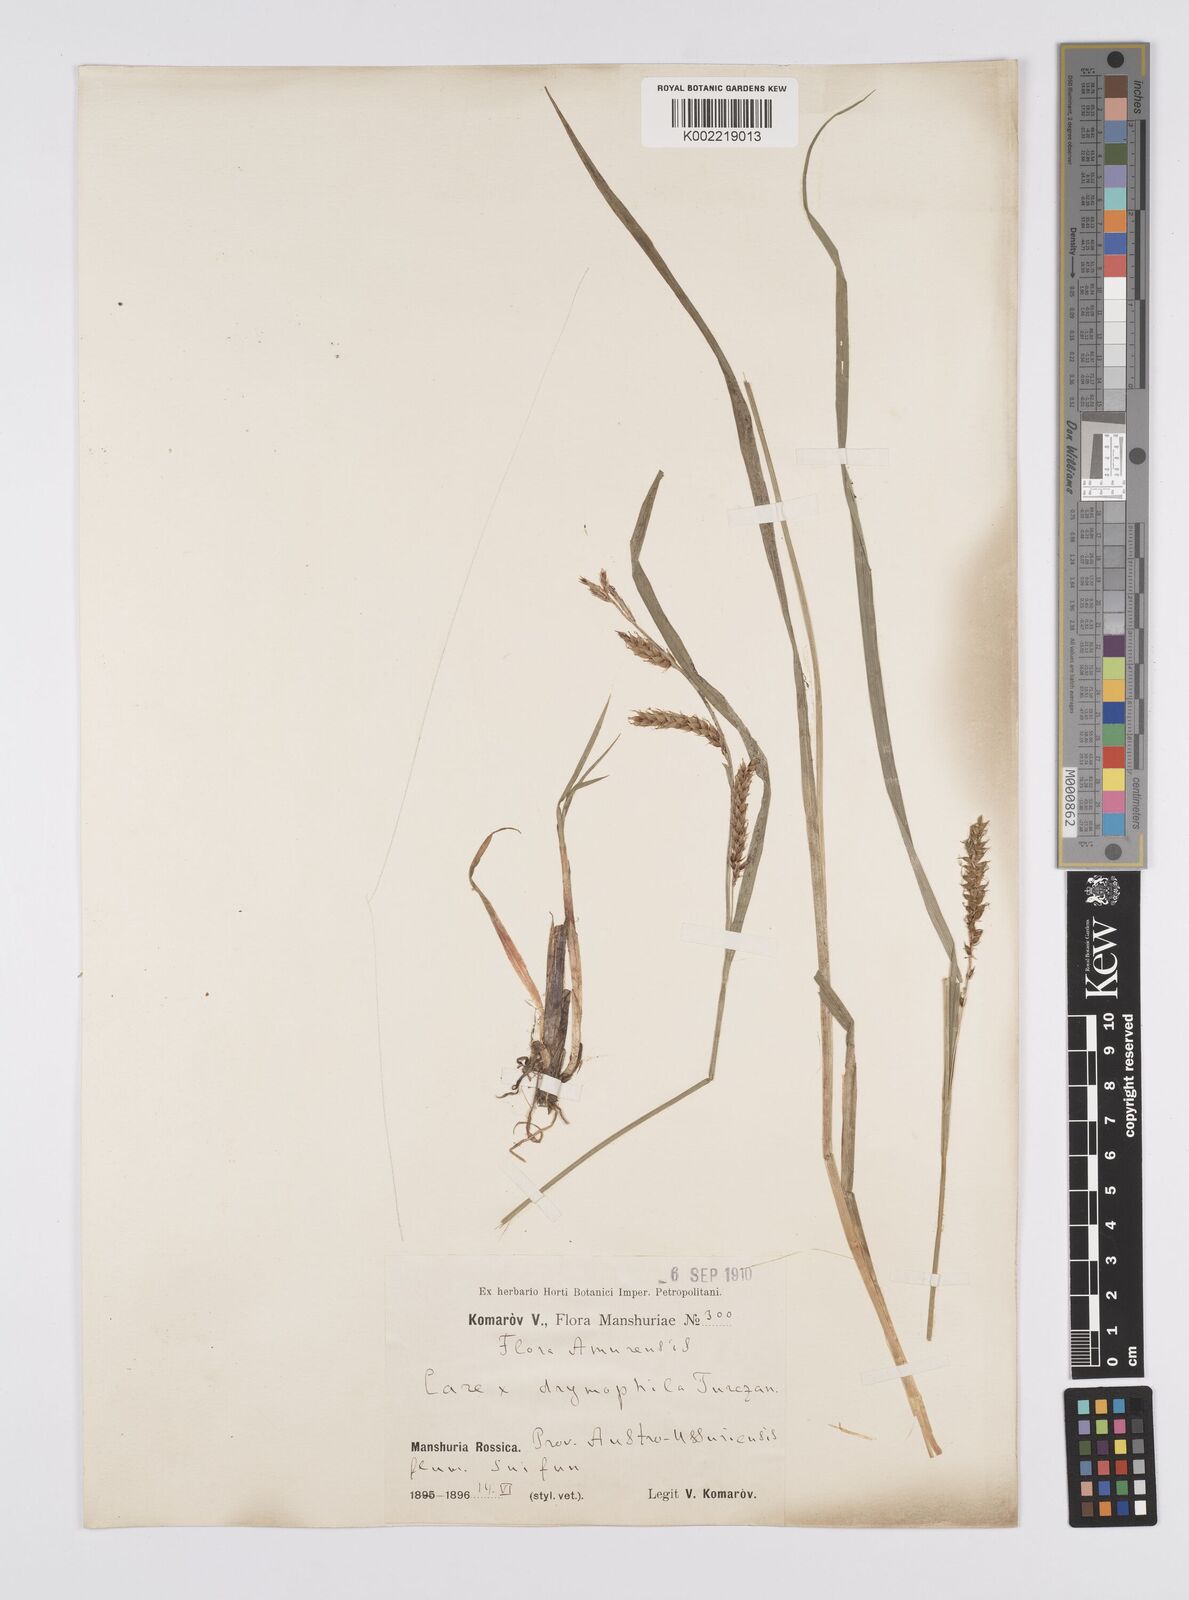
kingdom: Plantae
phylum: Tracheophyta
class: Liliopsida
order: Poales
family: Cyperaceae
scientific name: Cyperaceae
